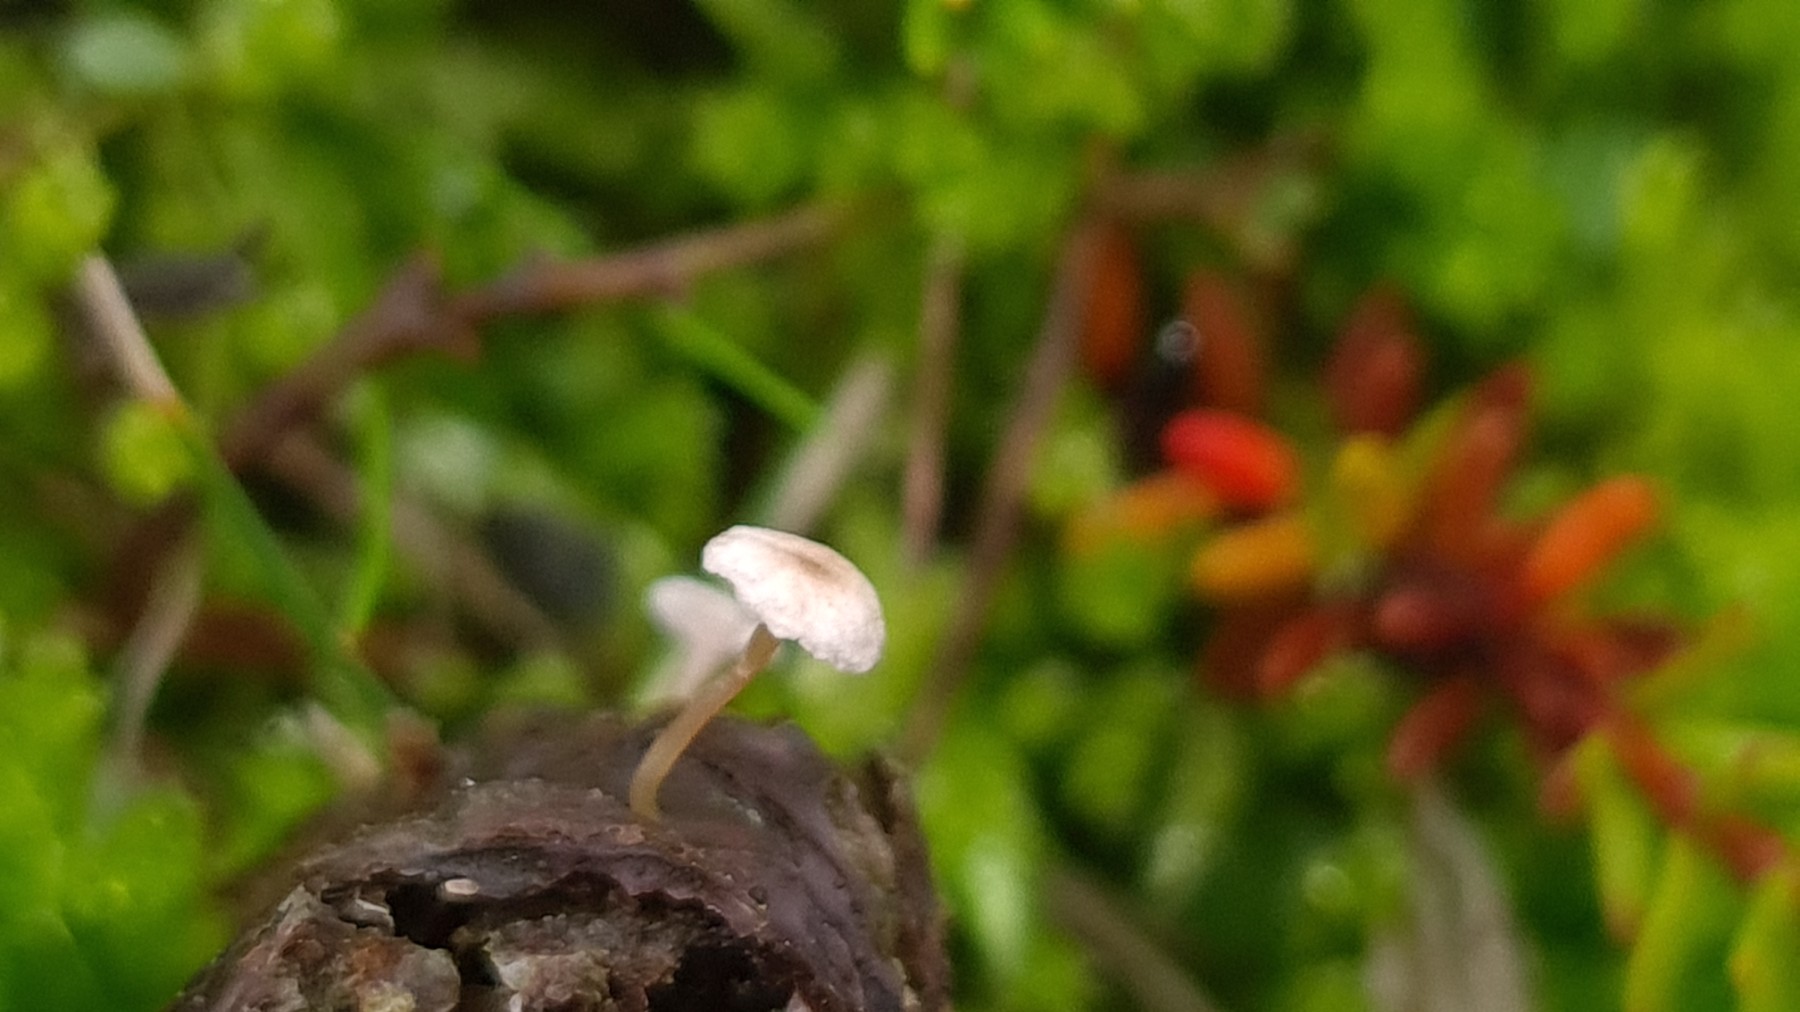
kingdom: Fungi
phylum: Basidiomycota
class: Agaricomycetes
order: Agaricales
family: Tricholomataceae
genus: Collybia
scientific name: Collybia cirrhata
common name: silke-lighat
